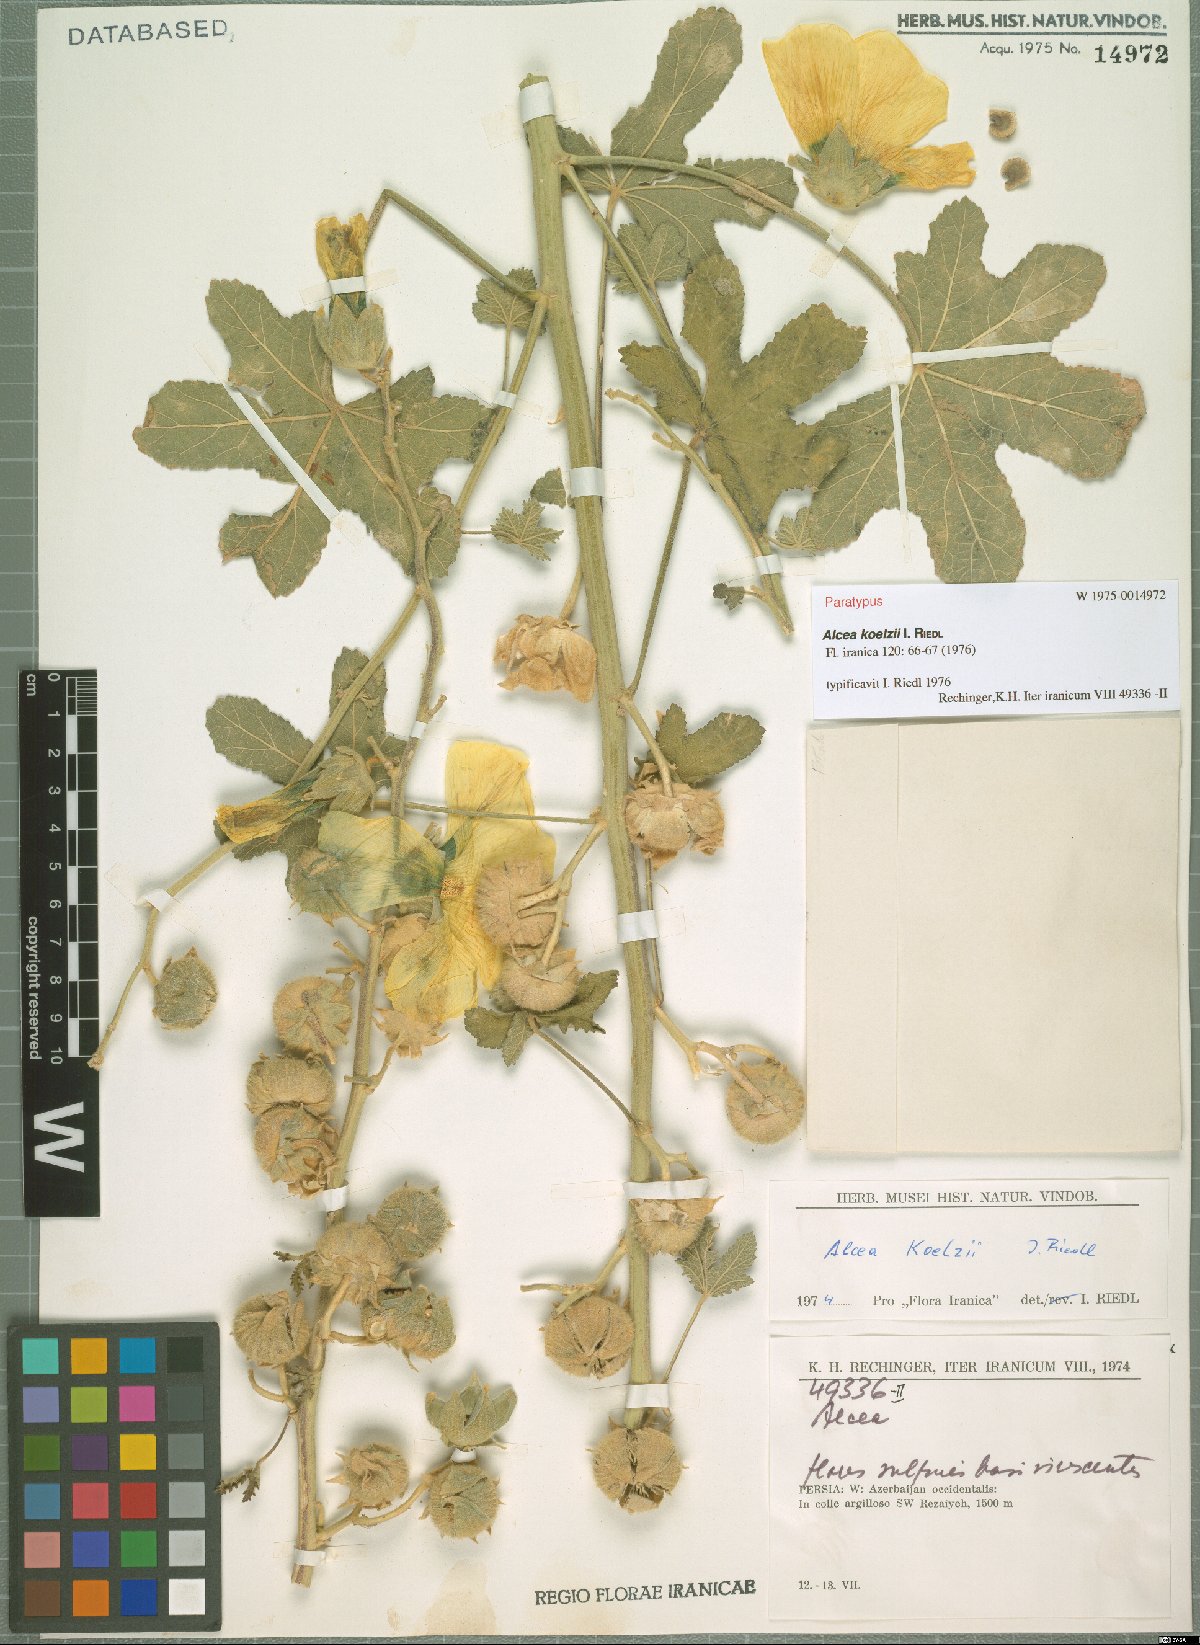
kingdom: Plantae
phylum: Tracheophyta
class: Magnoliopsida
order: Malvales
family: Malvaceae
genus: Alcea
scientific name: Alcea koelzii
